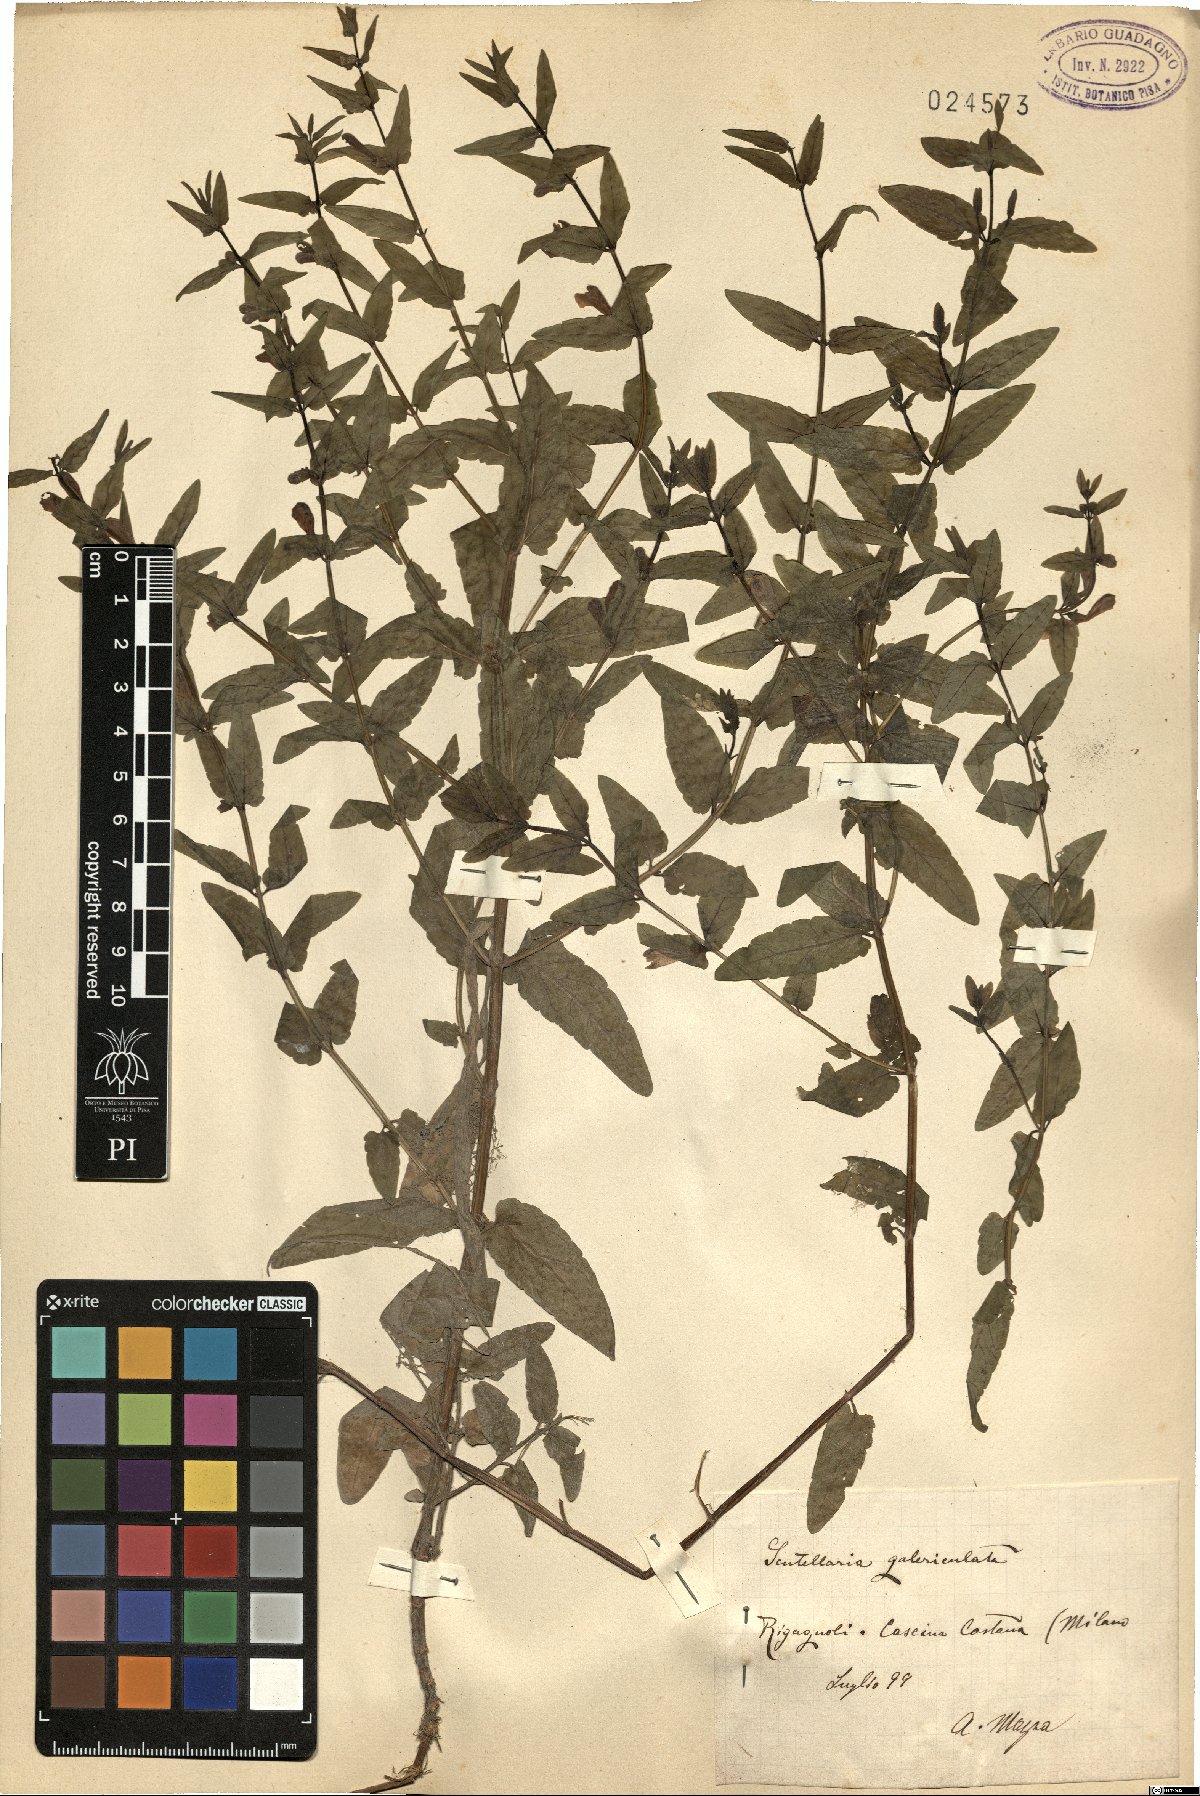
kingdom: Plantae
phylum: Tracheophyta
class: Magnoliopsida
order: Lamiales
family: Lamiaceae
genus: Scutellaria
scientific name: Scutellaria galericulata
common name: Skullcap
